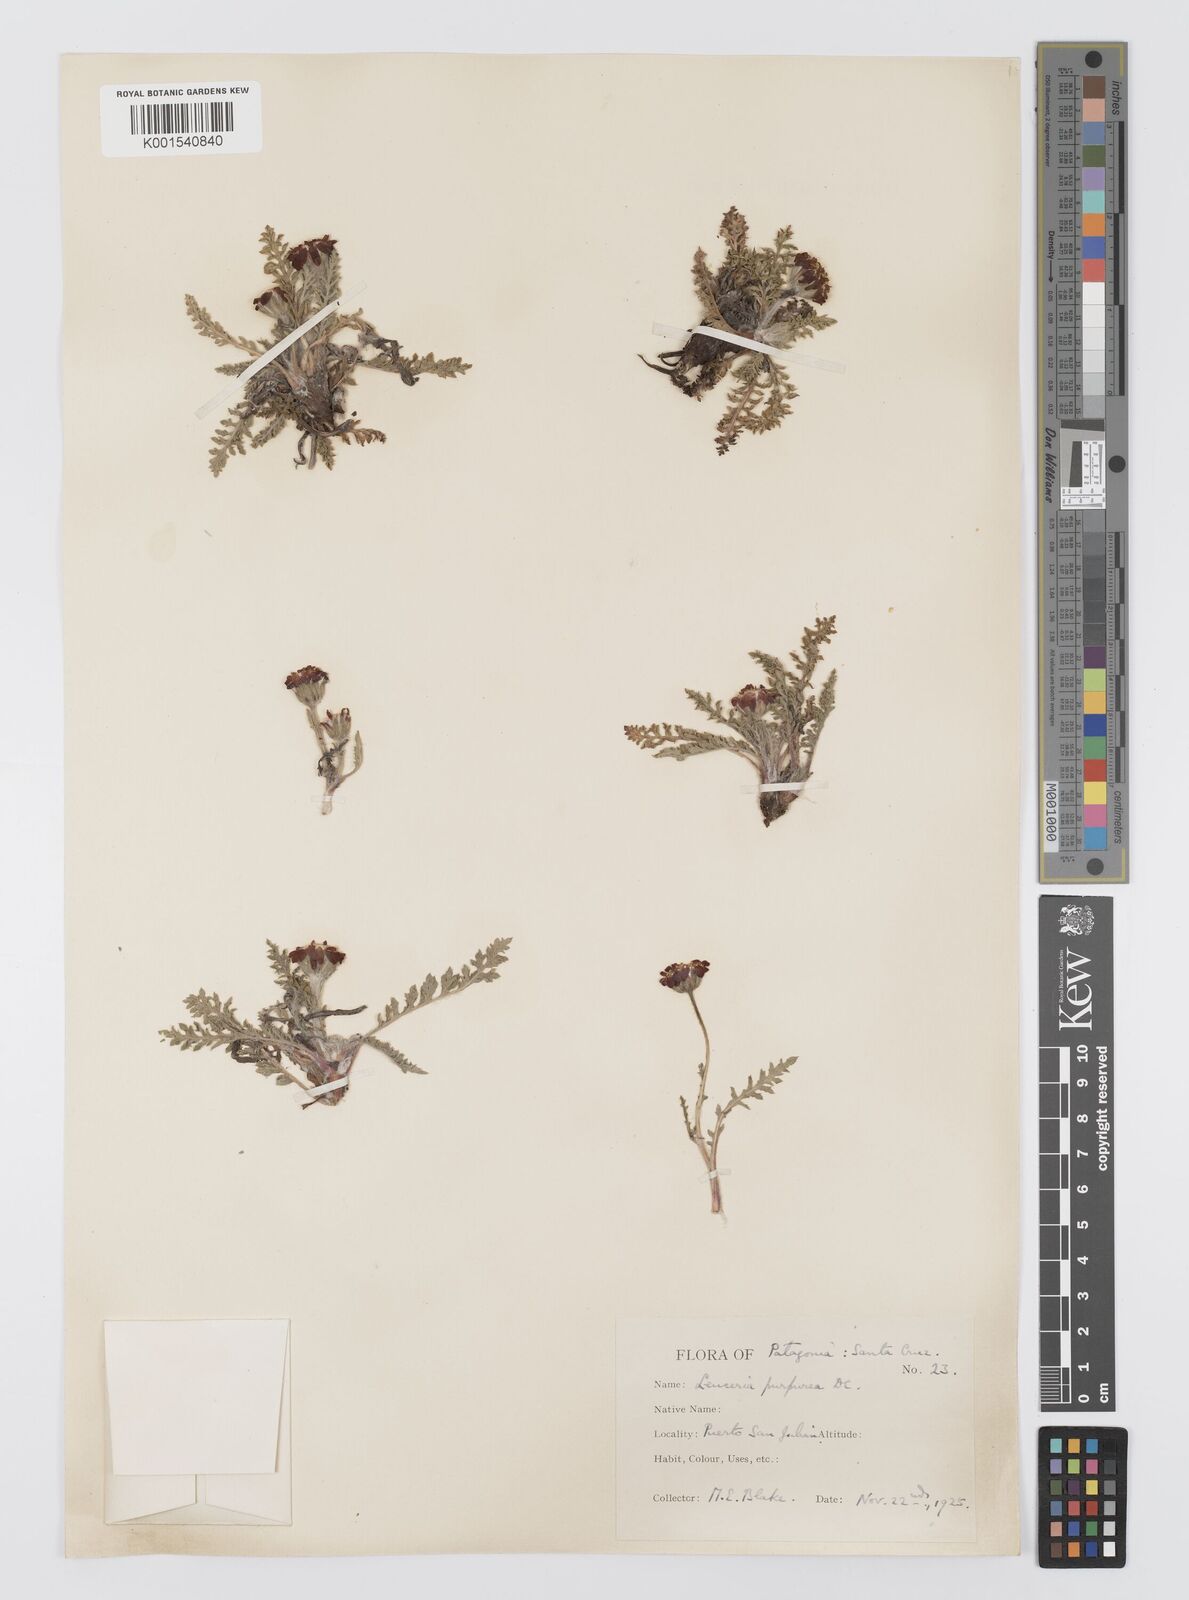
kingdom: Plantae
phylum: Tracheophyta
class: Magnoliopsida
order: Asterales
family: Asteraceae
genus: Leucheria
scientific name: Leucheria purpurea
